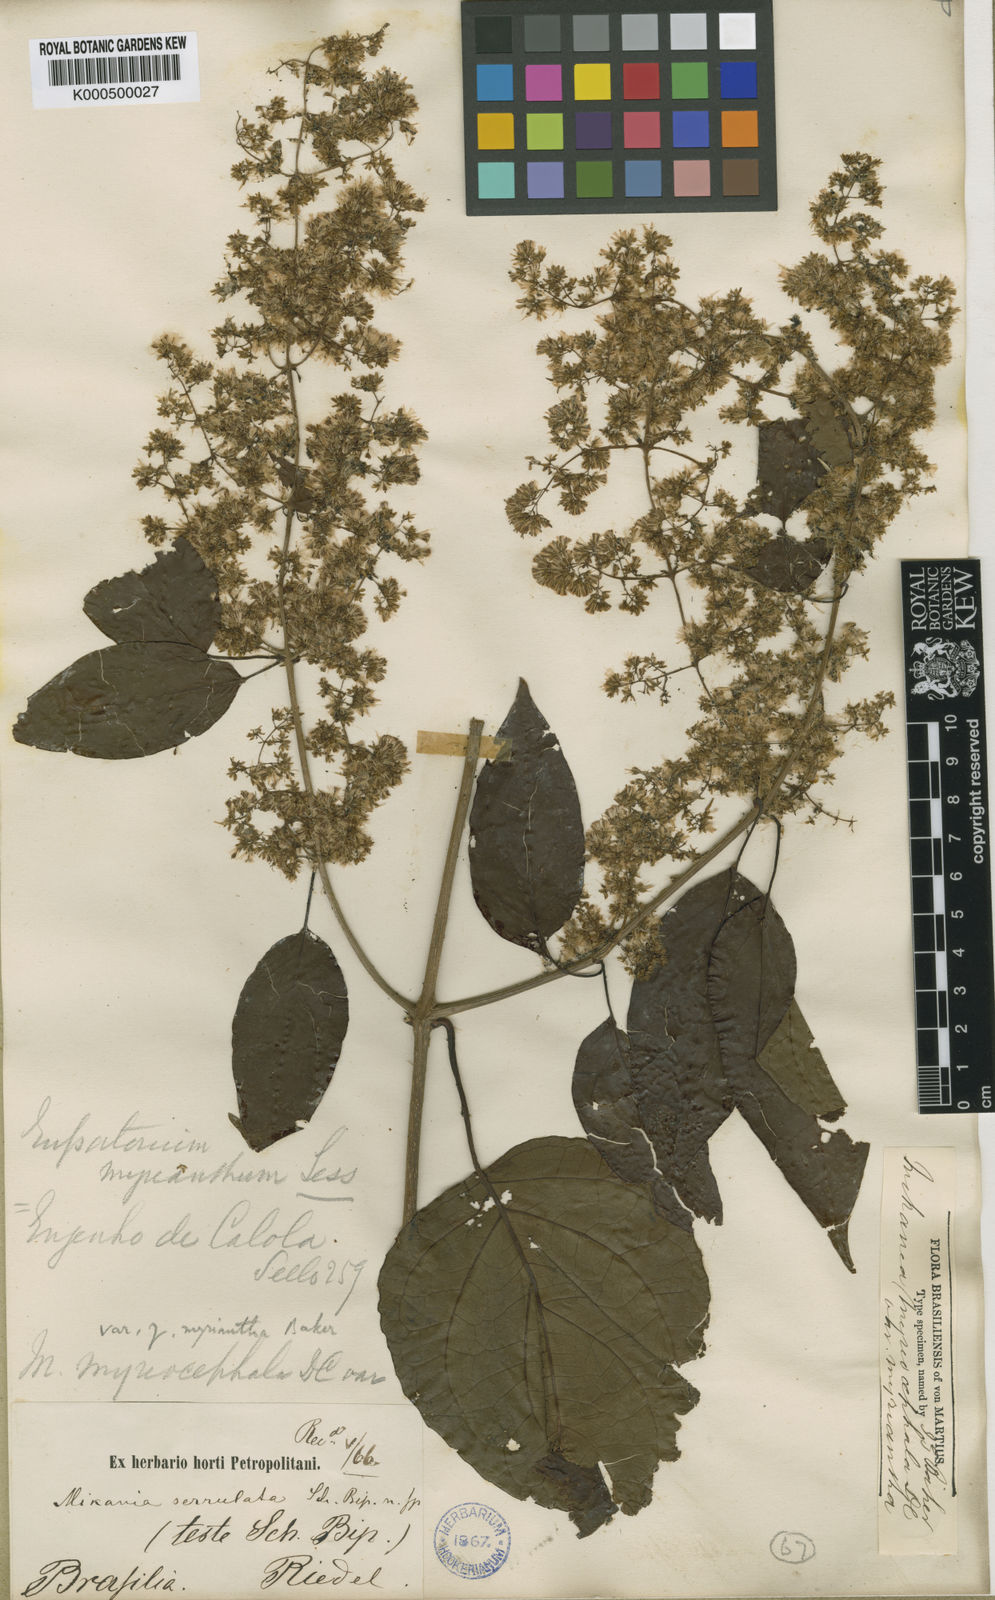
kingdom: Plantae
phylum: Tracheophyta
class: Magnoliopsida
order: Asterales
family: Asteraceae
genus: Mikania
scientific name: Mikania myriocephala
